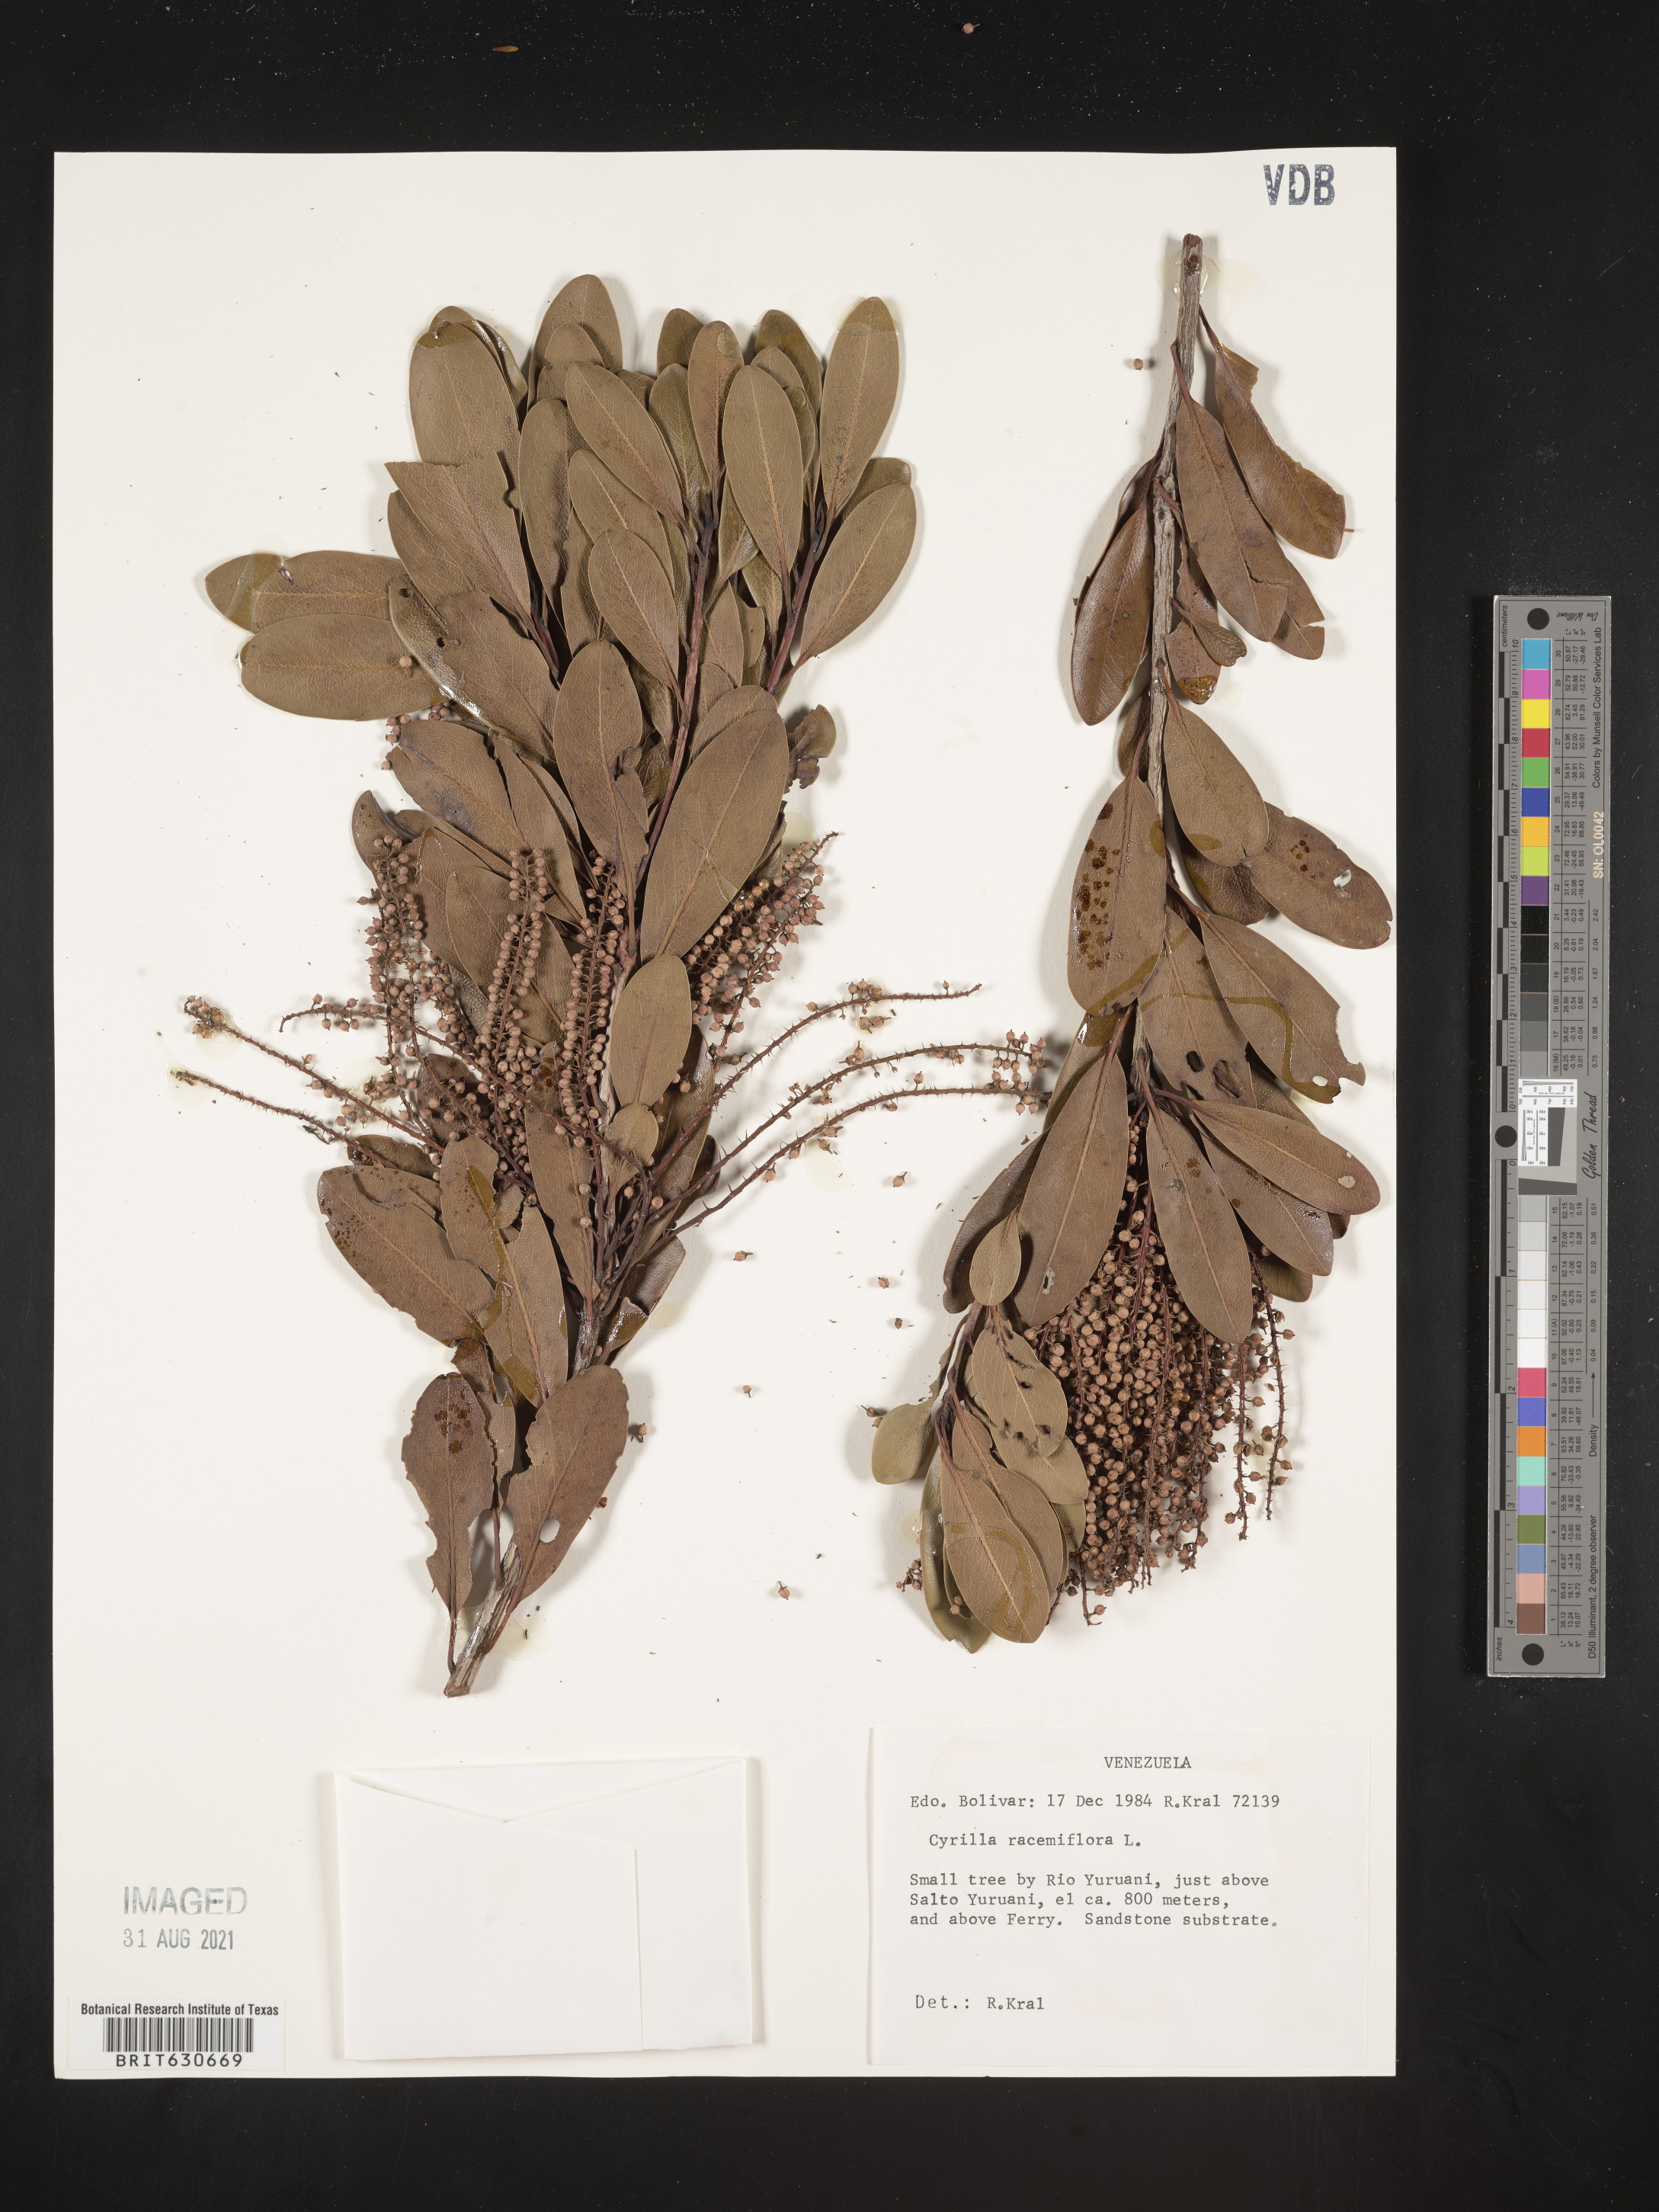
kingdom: Plantae
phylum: Tracheophyta
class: Magnoliopsida
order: Ericales
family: Cyrillaceae
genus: Cyrilla
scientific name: Cyrilla racemiflora
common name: Black titi
